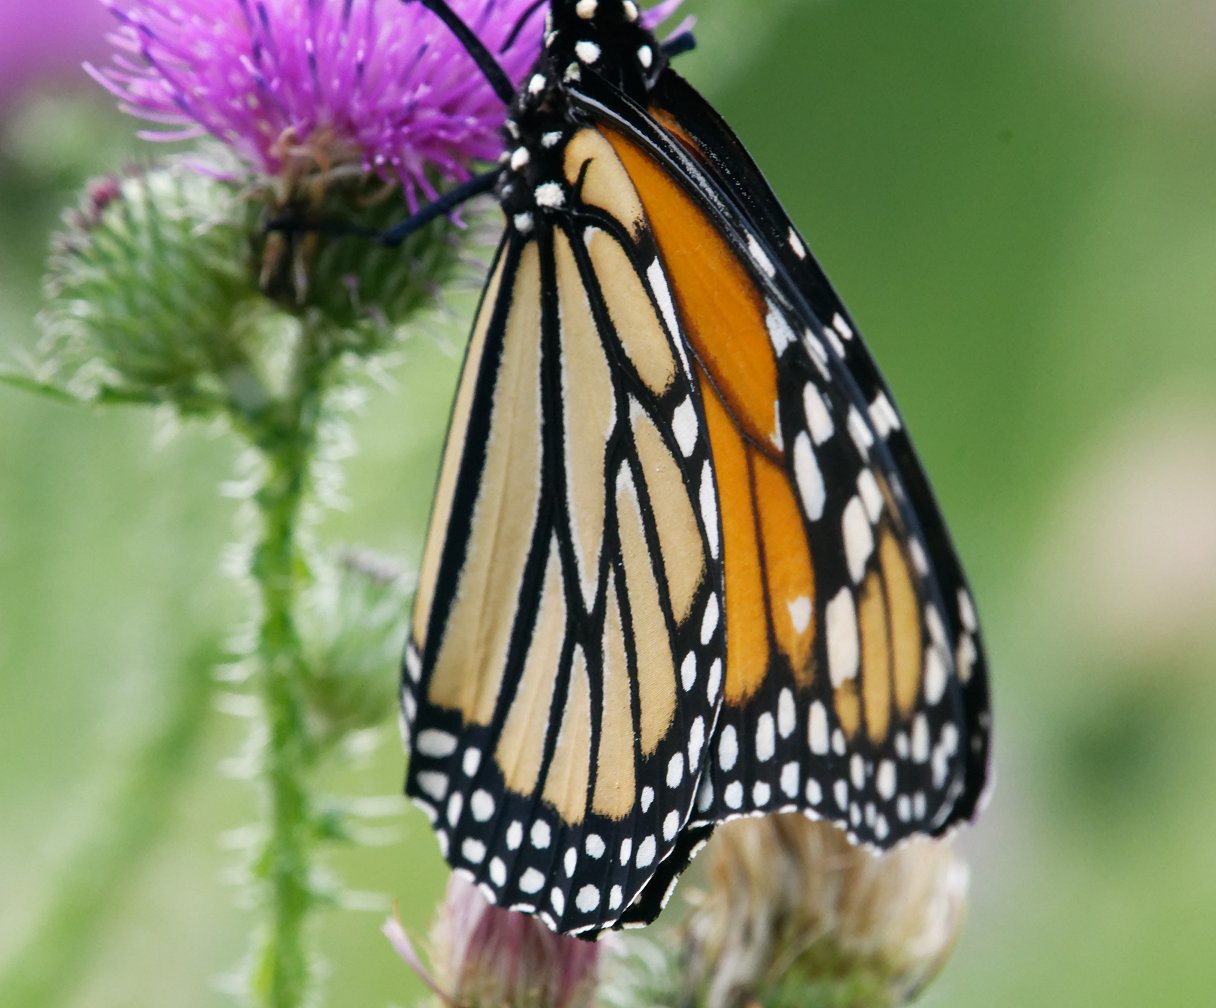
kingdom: Animalia
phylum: Arthropoda
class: Insecta
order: Lepidoptera
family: Nymphalidae
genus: Danaus
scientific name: Danaus plexippus
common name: Monarch
